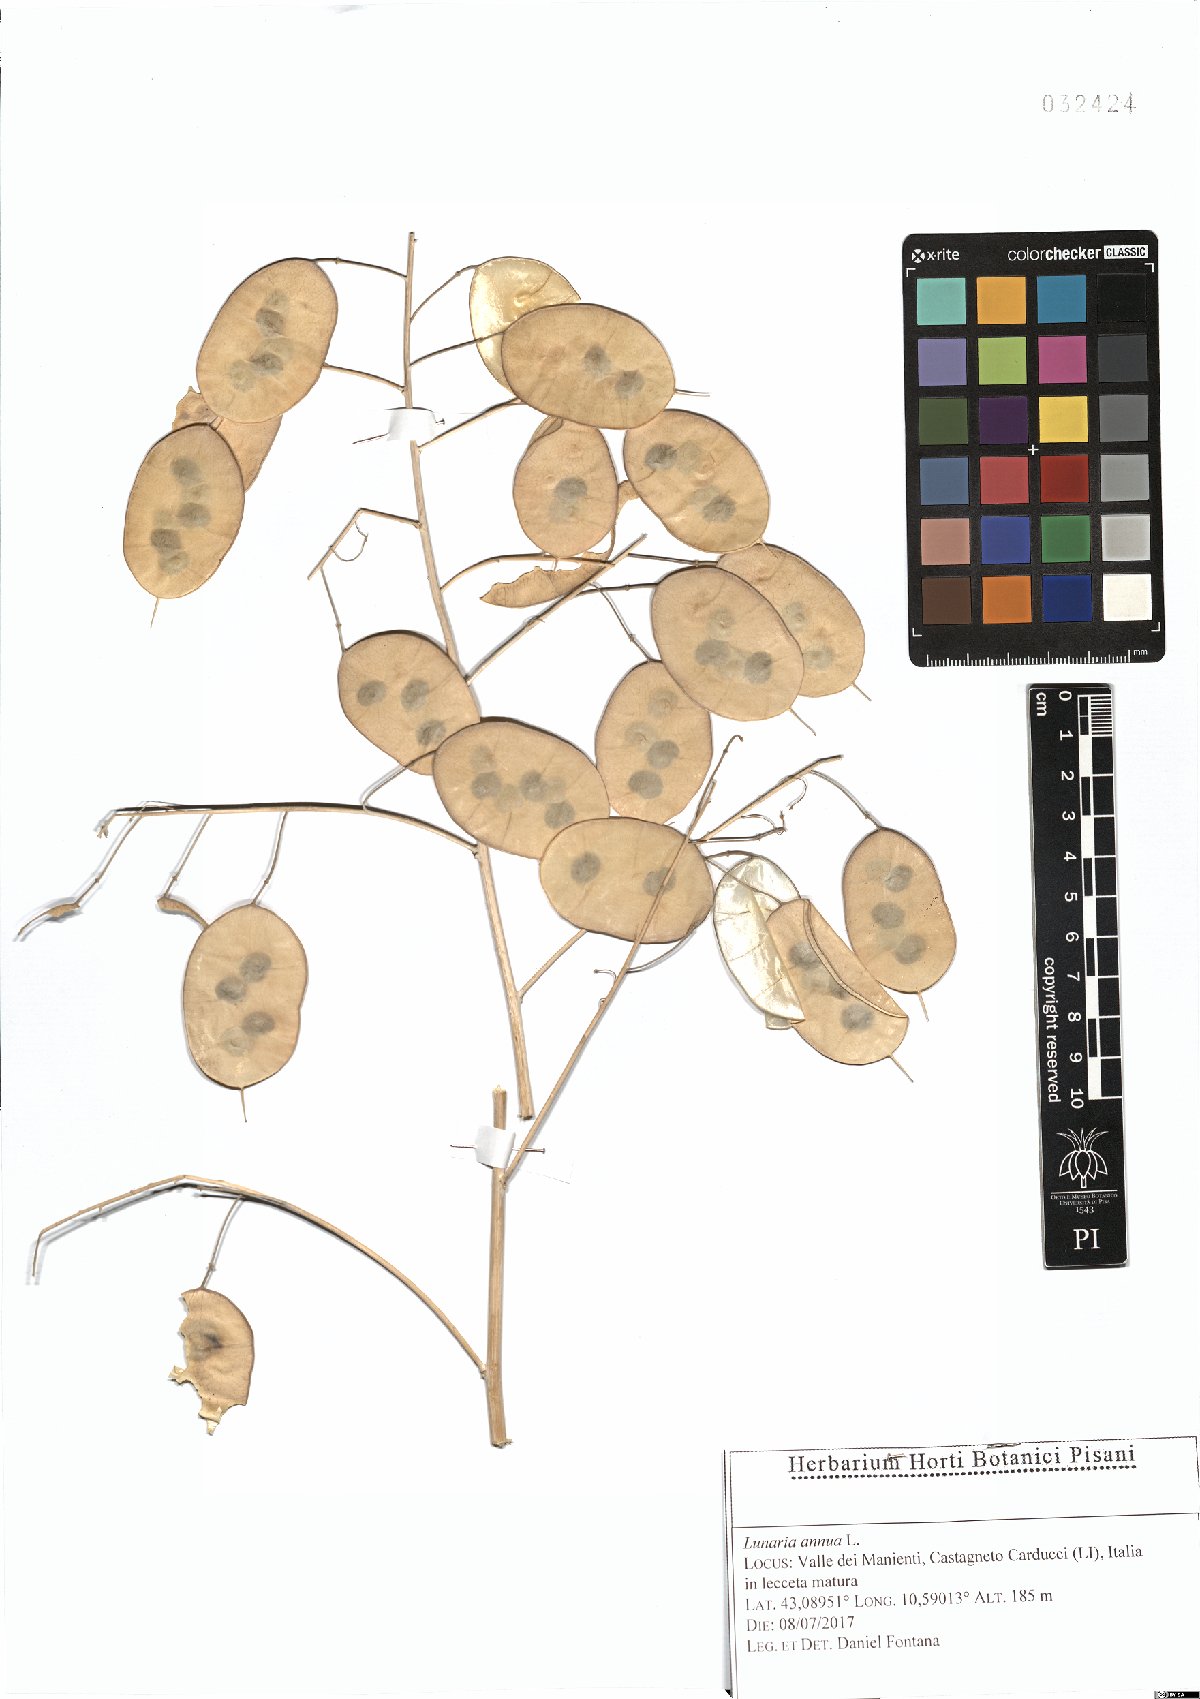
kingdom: Plantae
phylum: Tracheophyta
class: Magnoliopsida
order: Brassicales
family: Brassicaceae
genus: Lunaria
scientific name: Lunaria annua
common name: Honesty
